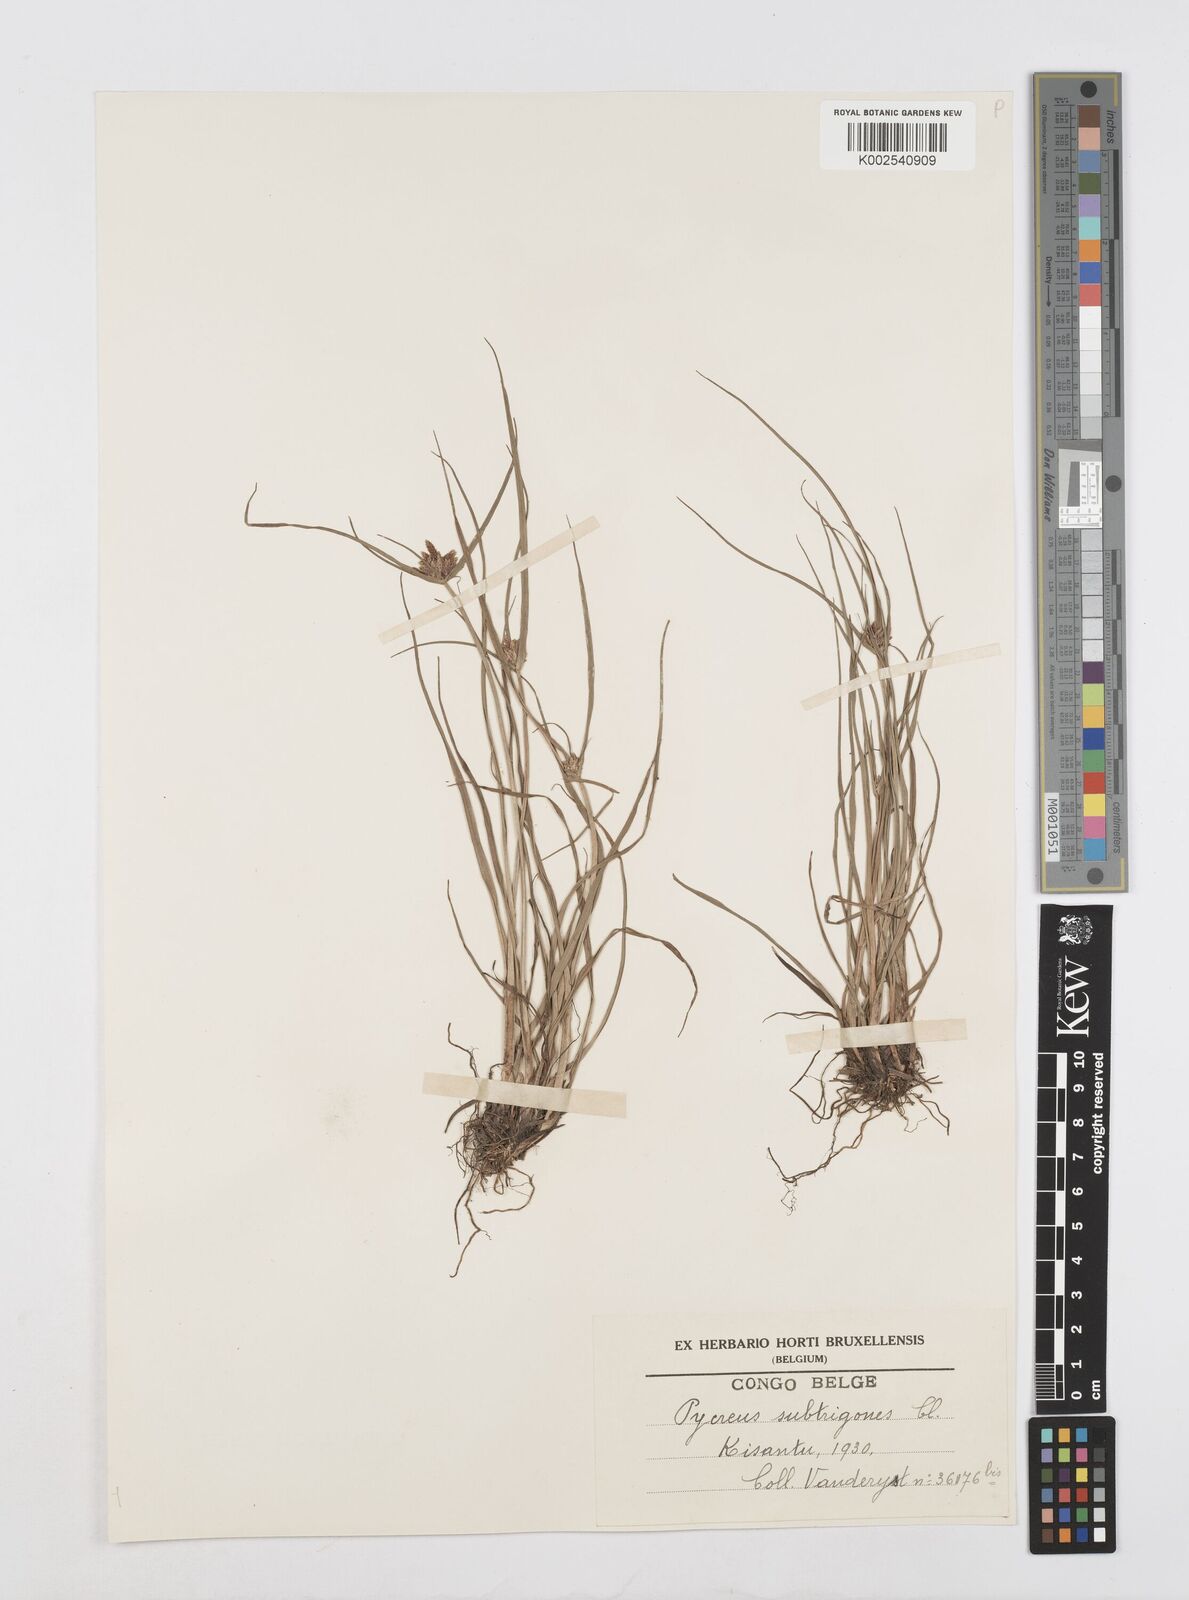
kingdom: Plantae
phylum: Tracheophyta
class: Liliopsida
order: Poales
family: Cyperaceae
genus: Cyperus
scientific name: Cyperus subtrigonus
